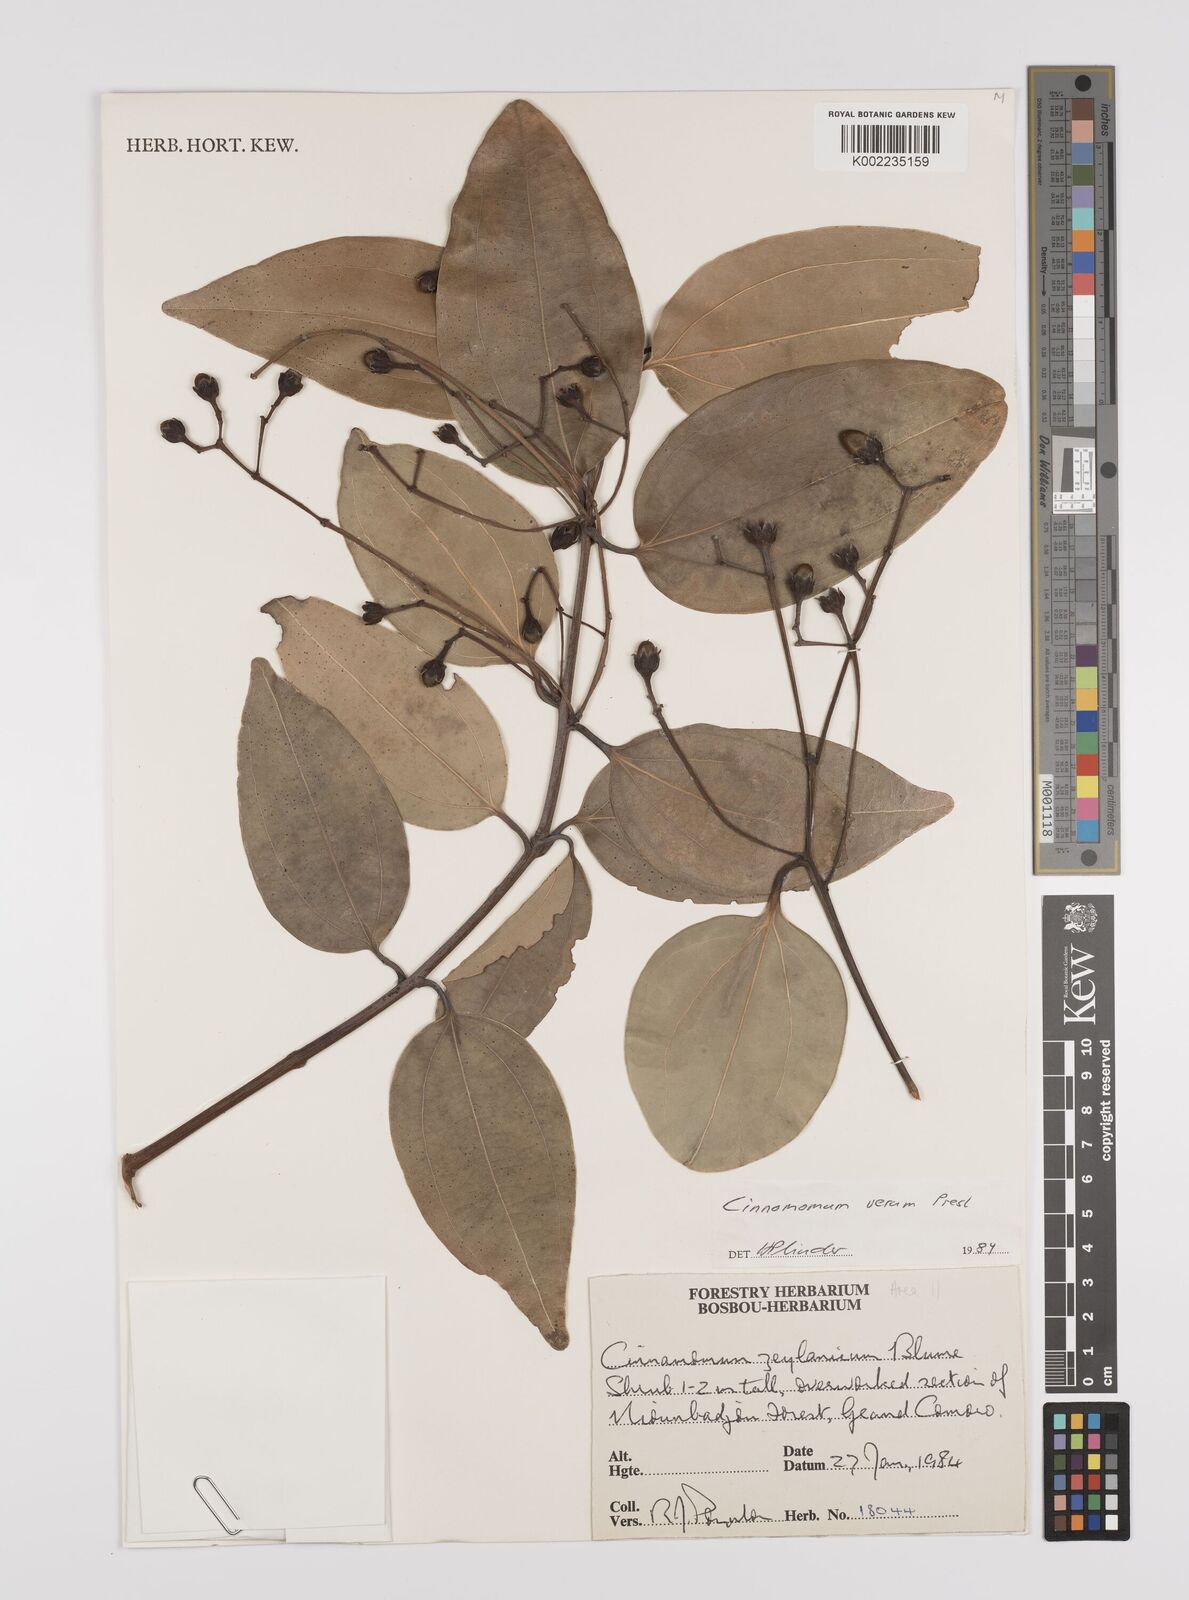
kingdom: Plantae
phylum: Tracheophyta
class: Magnoliopsida
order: Laurales
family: Lauraceae
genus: Cinnamomum
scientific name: Cinnamomum verum
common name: Cinnamon
